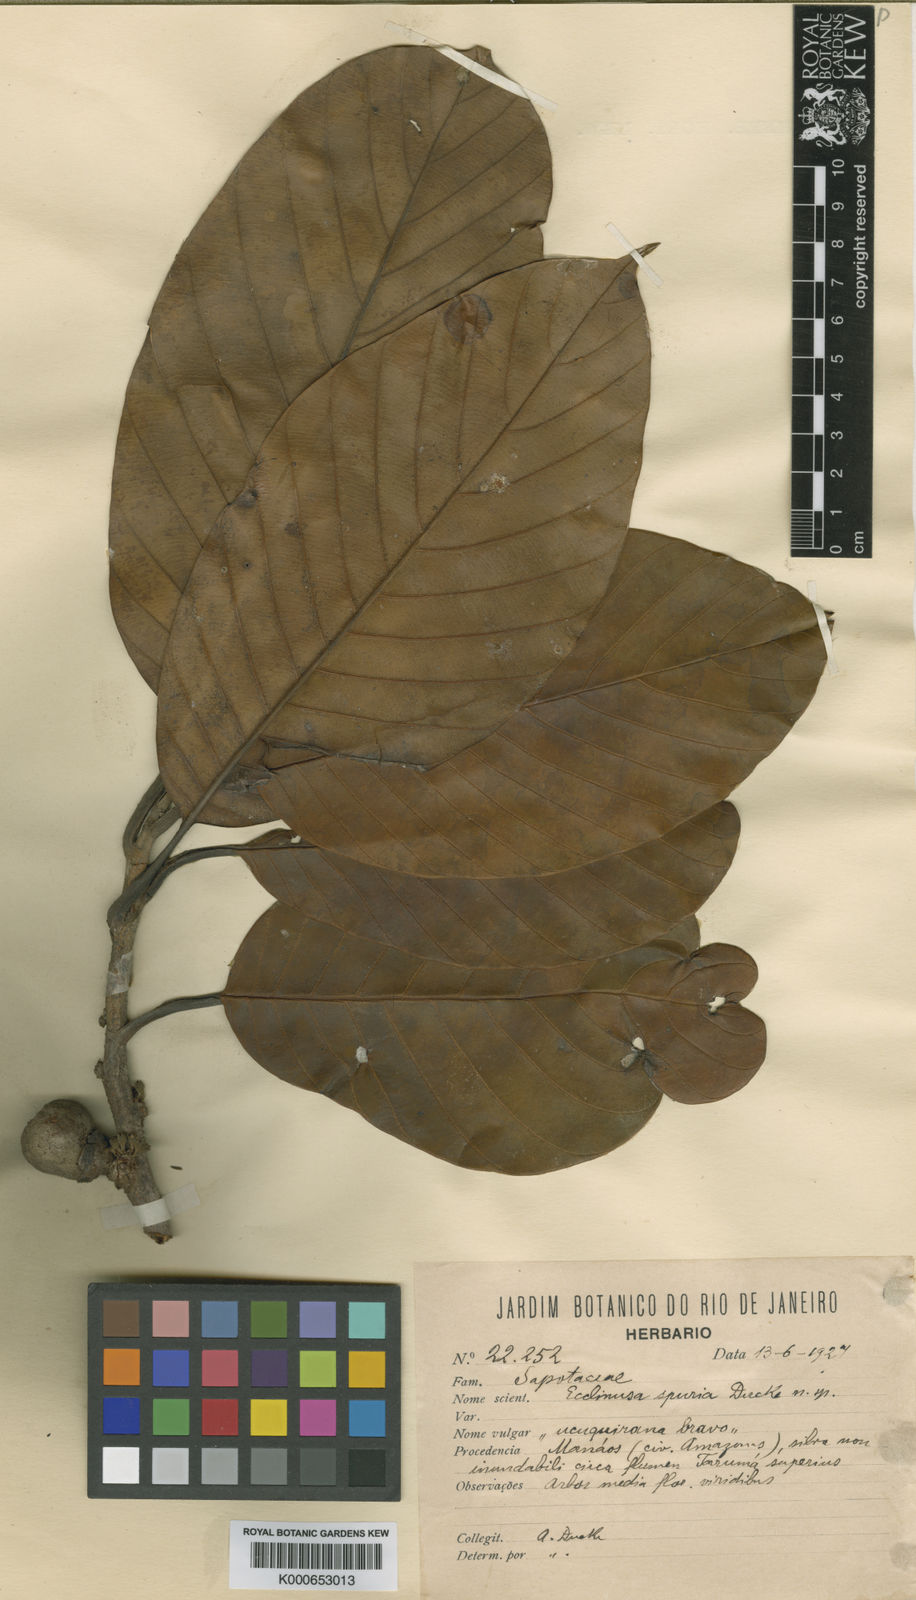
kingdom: Plantae
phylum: Tracheophyta
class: Magnoliopsida
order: Ericales
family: Sapotaceae
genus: Chrysophyllum
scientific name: Chrysophyllum sanguinolentum
